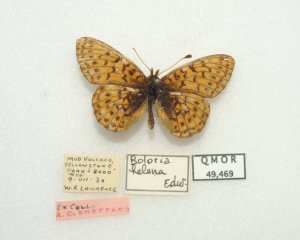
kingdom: Animalia
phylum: Arthropoda
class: Insecta
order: Lepidoptera
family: Nymphalidae
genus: Boloria
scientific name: Boloria chariclea
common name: Arctic Fritillary
